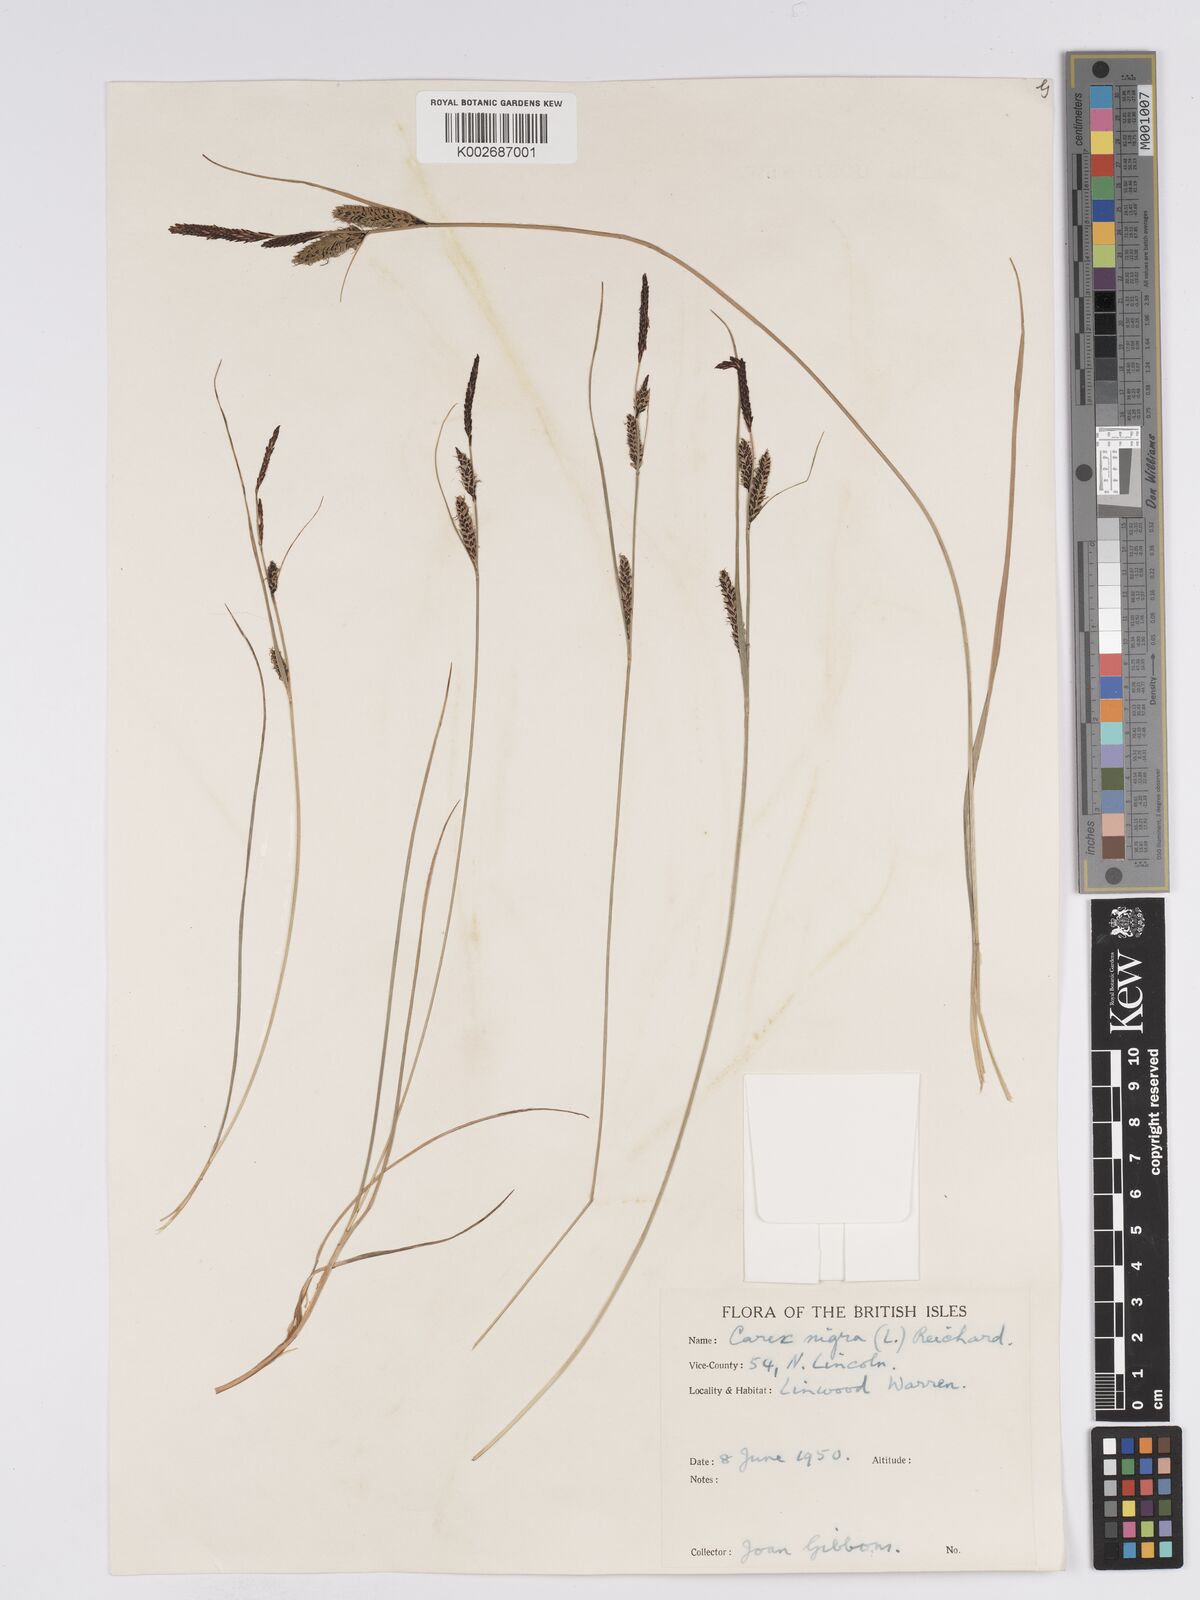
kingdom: Plantae
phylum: Tracheophyta
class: Liliopsida
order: Poales
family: Cyperaceae
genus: Carex
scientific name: Carex nigra
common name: Common sedge
